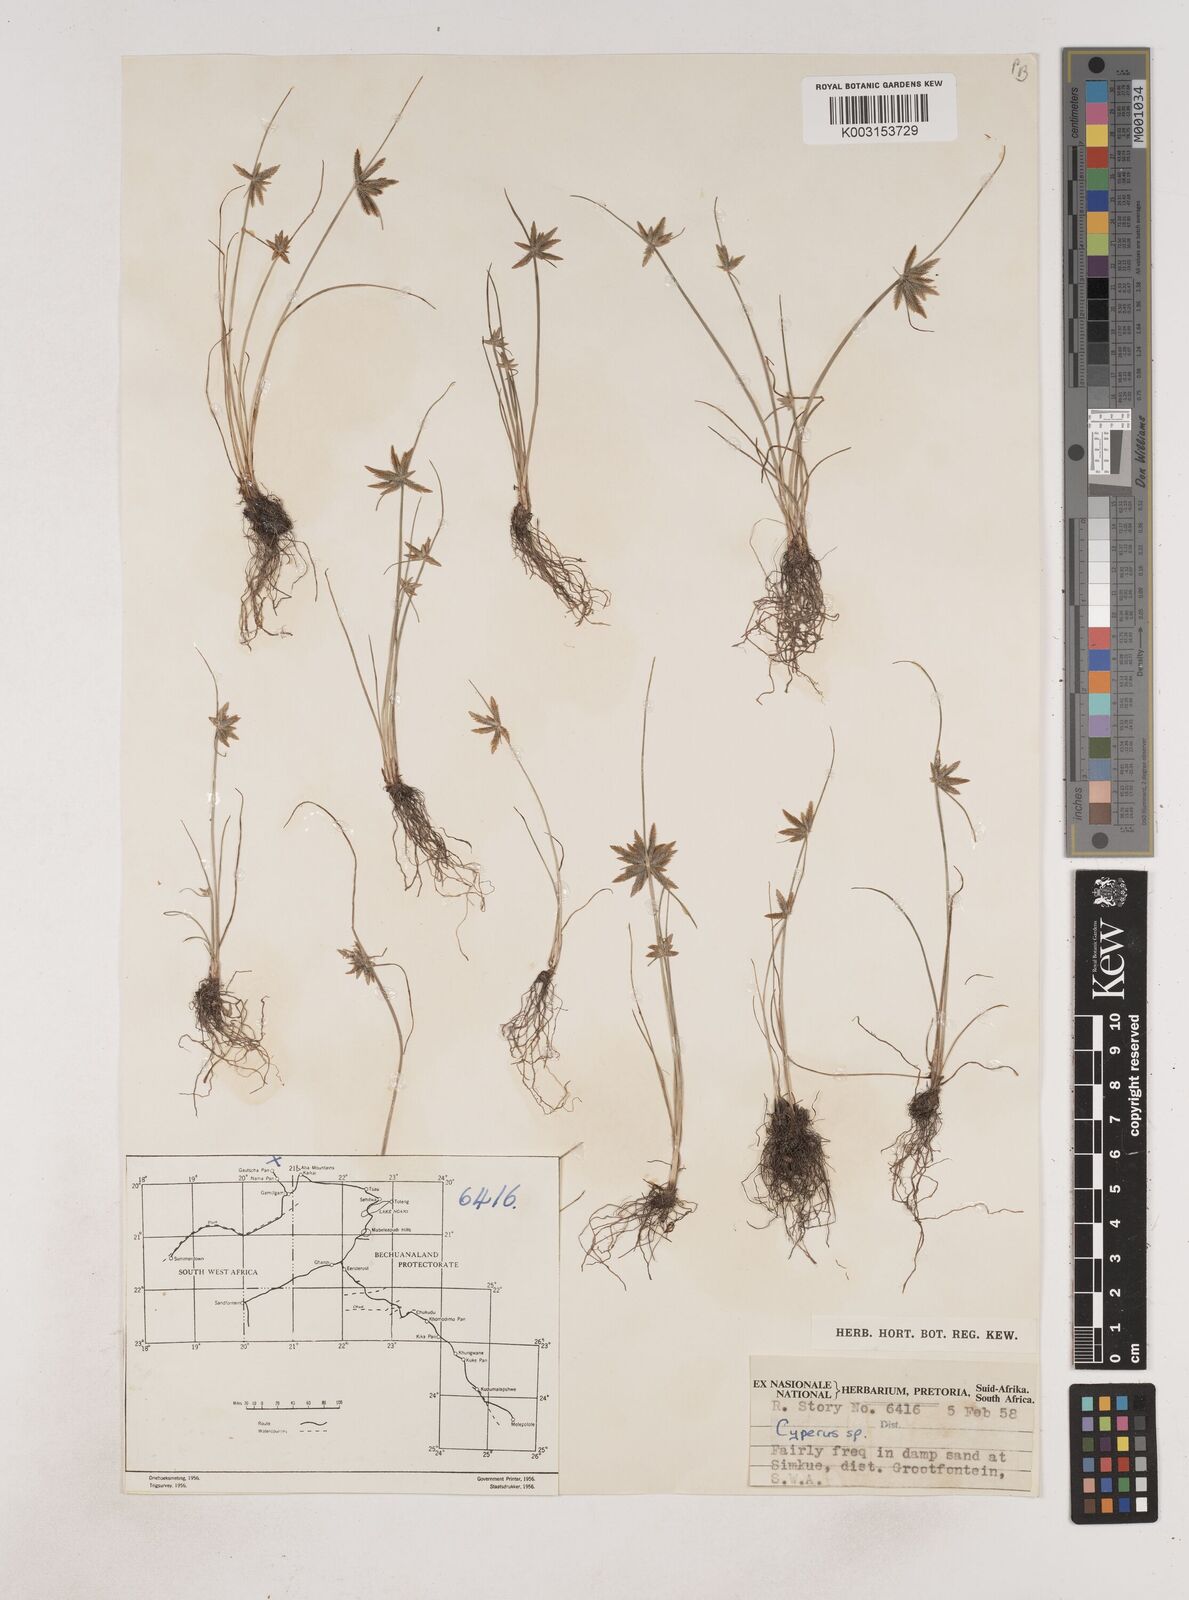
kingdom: Plantae
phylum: Tracheophyta
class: Liliopsida
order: Poales
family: Cyperaceae
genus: Cyperus
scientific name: Cyperus remotiflorus
